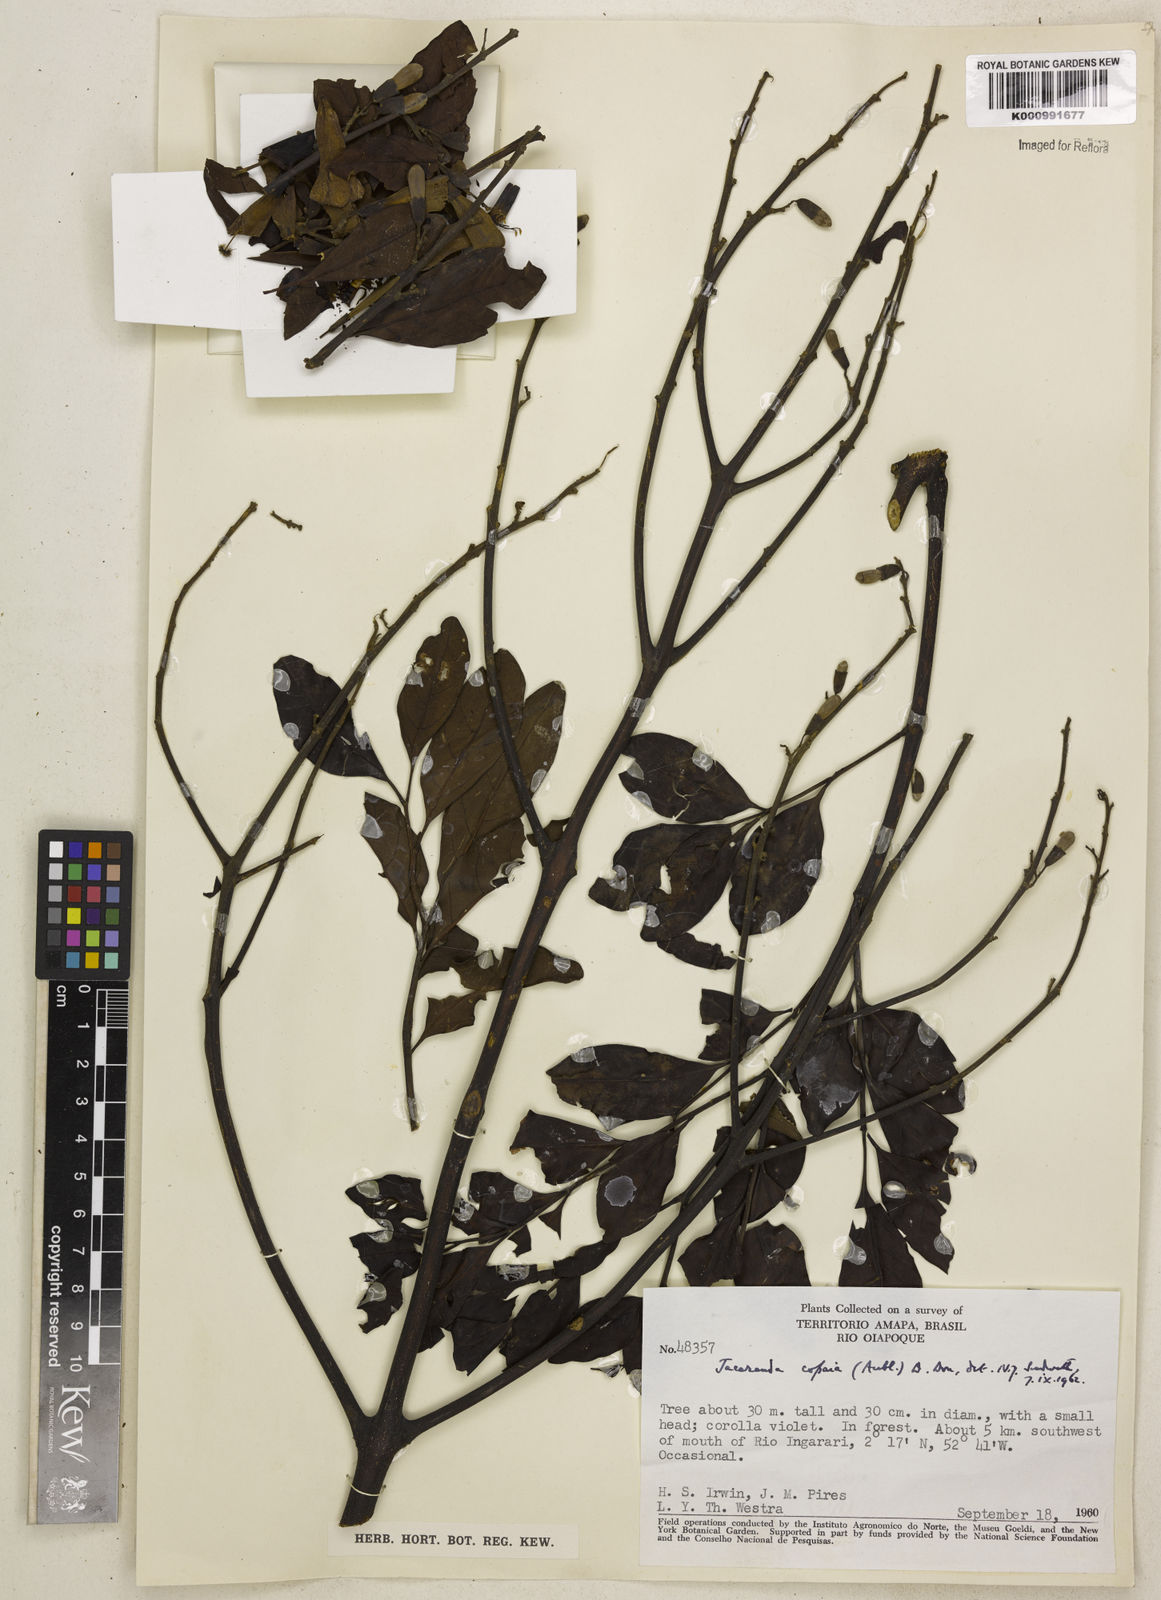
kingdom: Plantae
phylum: Tracheophyta
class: Magnoliopsida
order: Lamiales
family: Bignoniaceae
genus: Jacaranda
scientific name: Jacaranda
